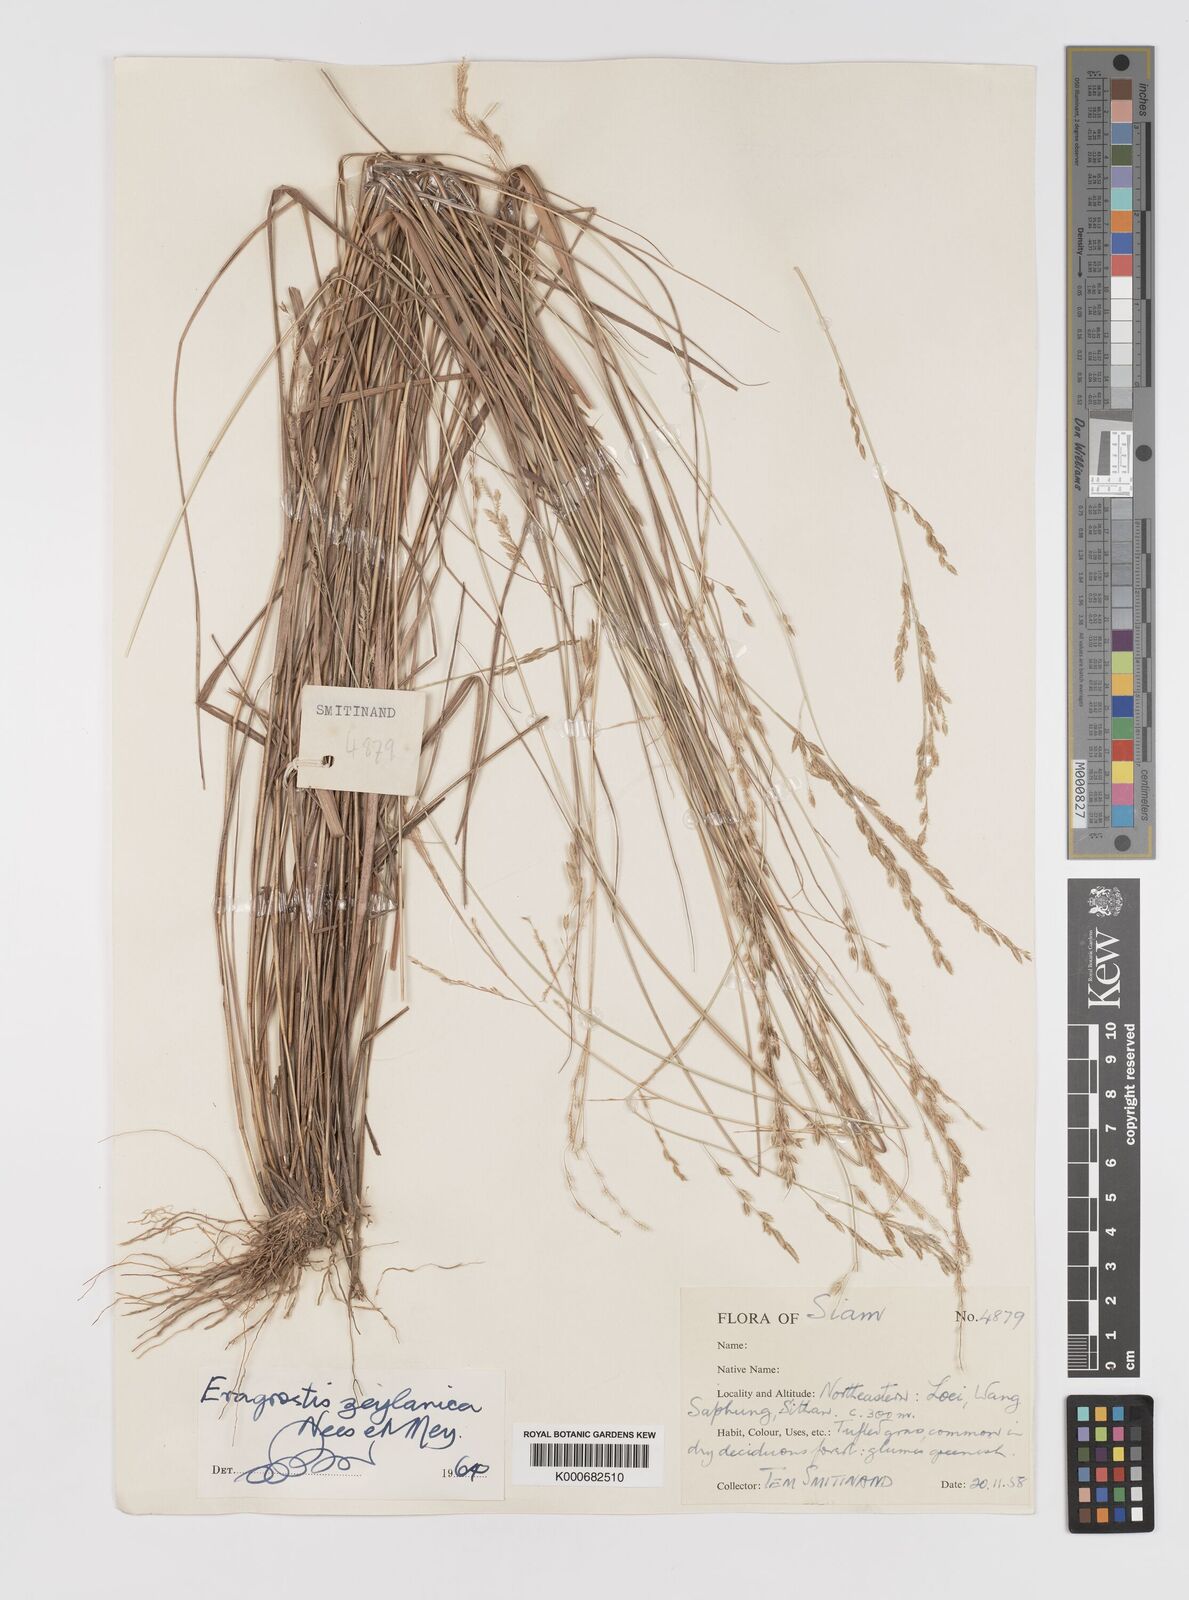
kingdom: Plantae
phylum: Tracheophyta
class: Liliopsida
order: Poales
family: Poaceae
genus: Eragrostis
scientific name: Eragrostis brownii
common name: Lovegrass
